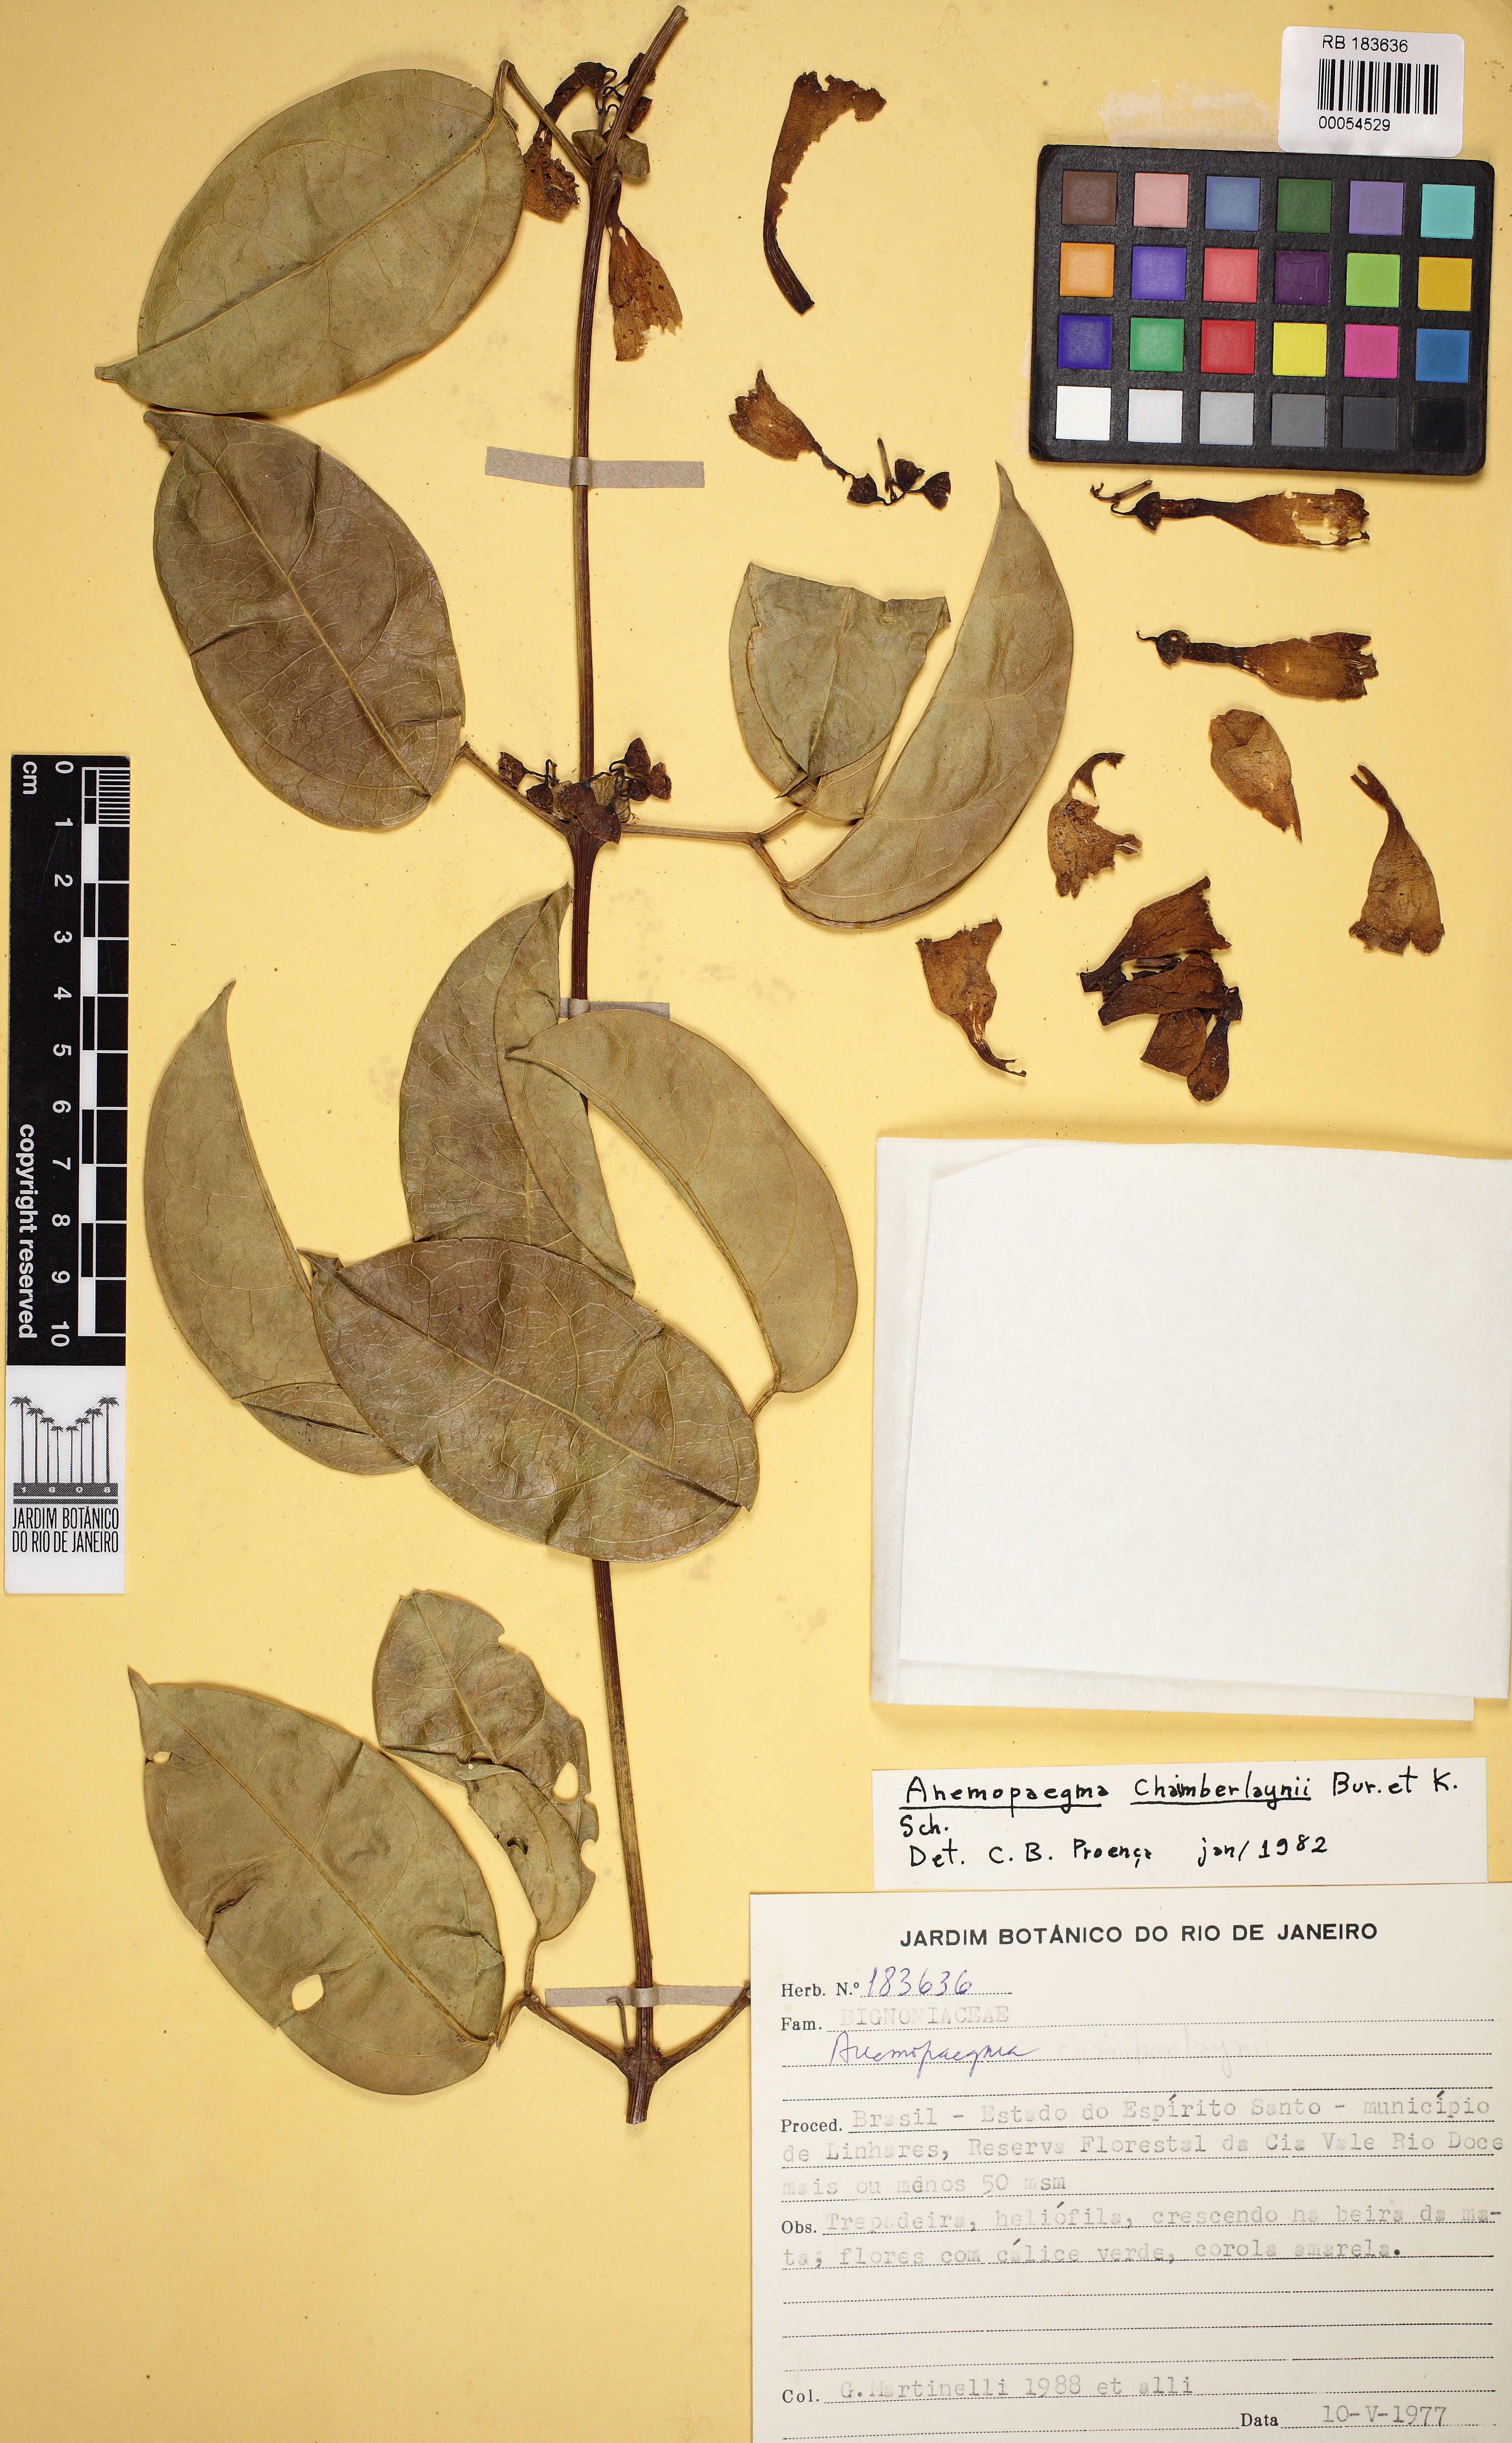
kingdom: Plantae
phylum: Tracheophyta
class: Magnoliopsida
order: Lamiales
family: Bignoniaceae
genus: Anemopaegma
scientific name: Anemopaegma chamberlaynii
